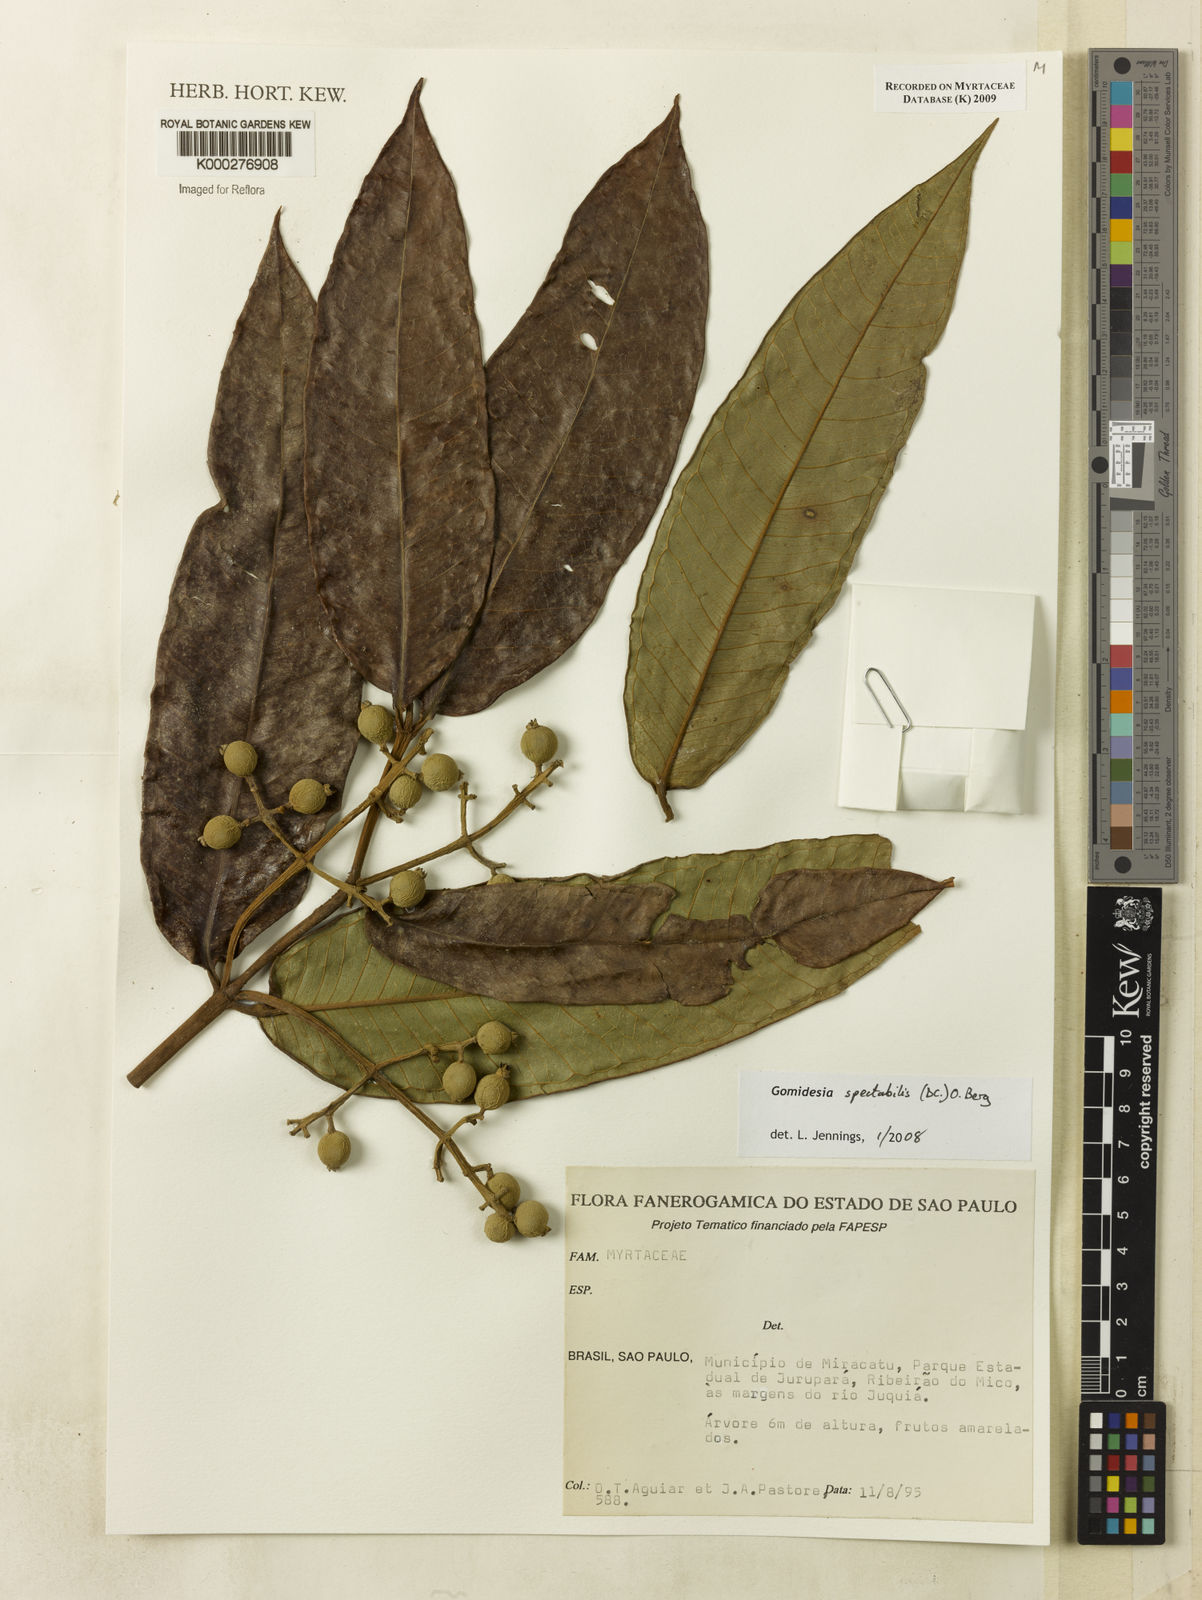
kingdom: Plantae
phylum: Tracheophyta
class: Magnoliopsida
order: Myrtales
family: Myrtaceae
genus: Myrcia
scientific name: Myrcia spectabilis
